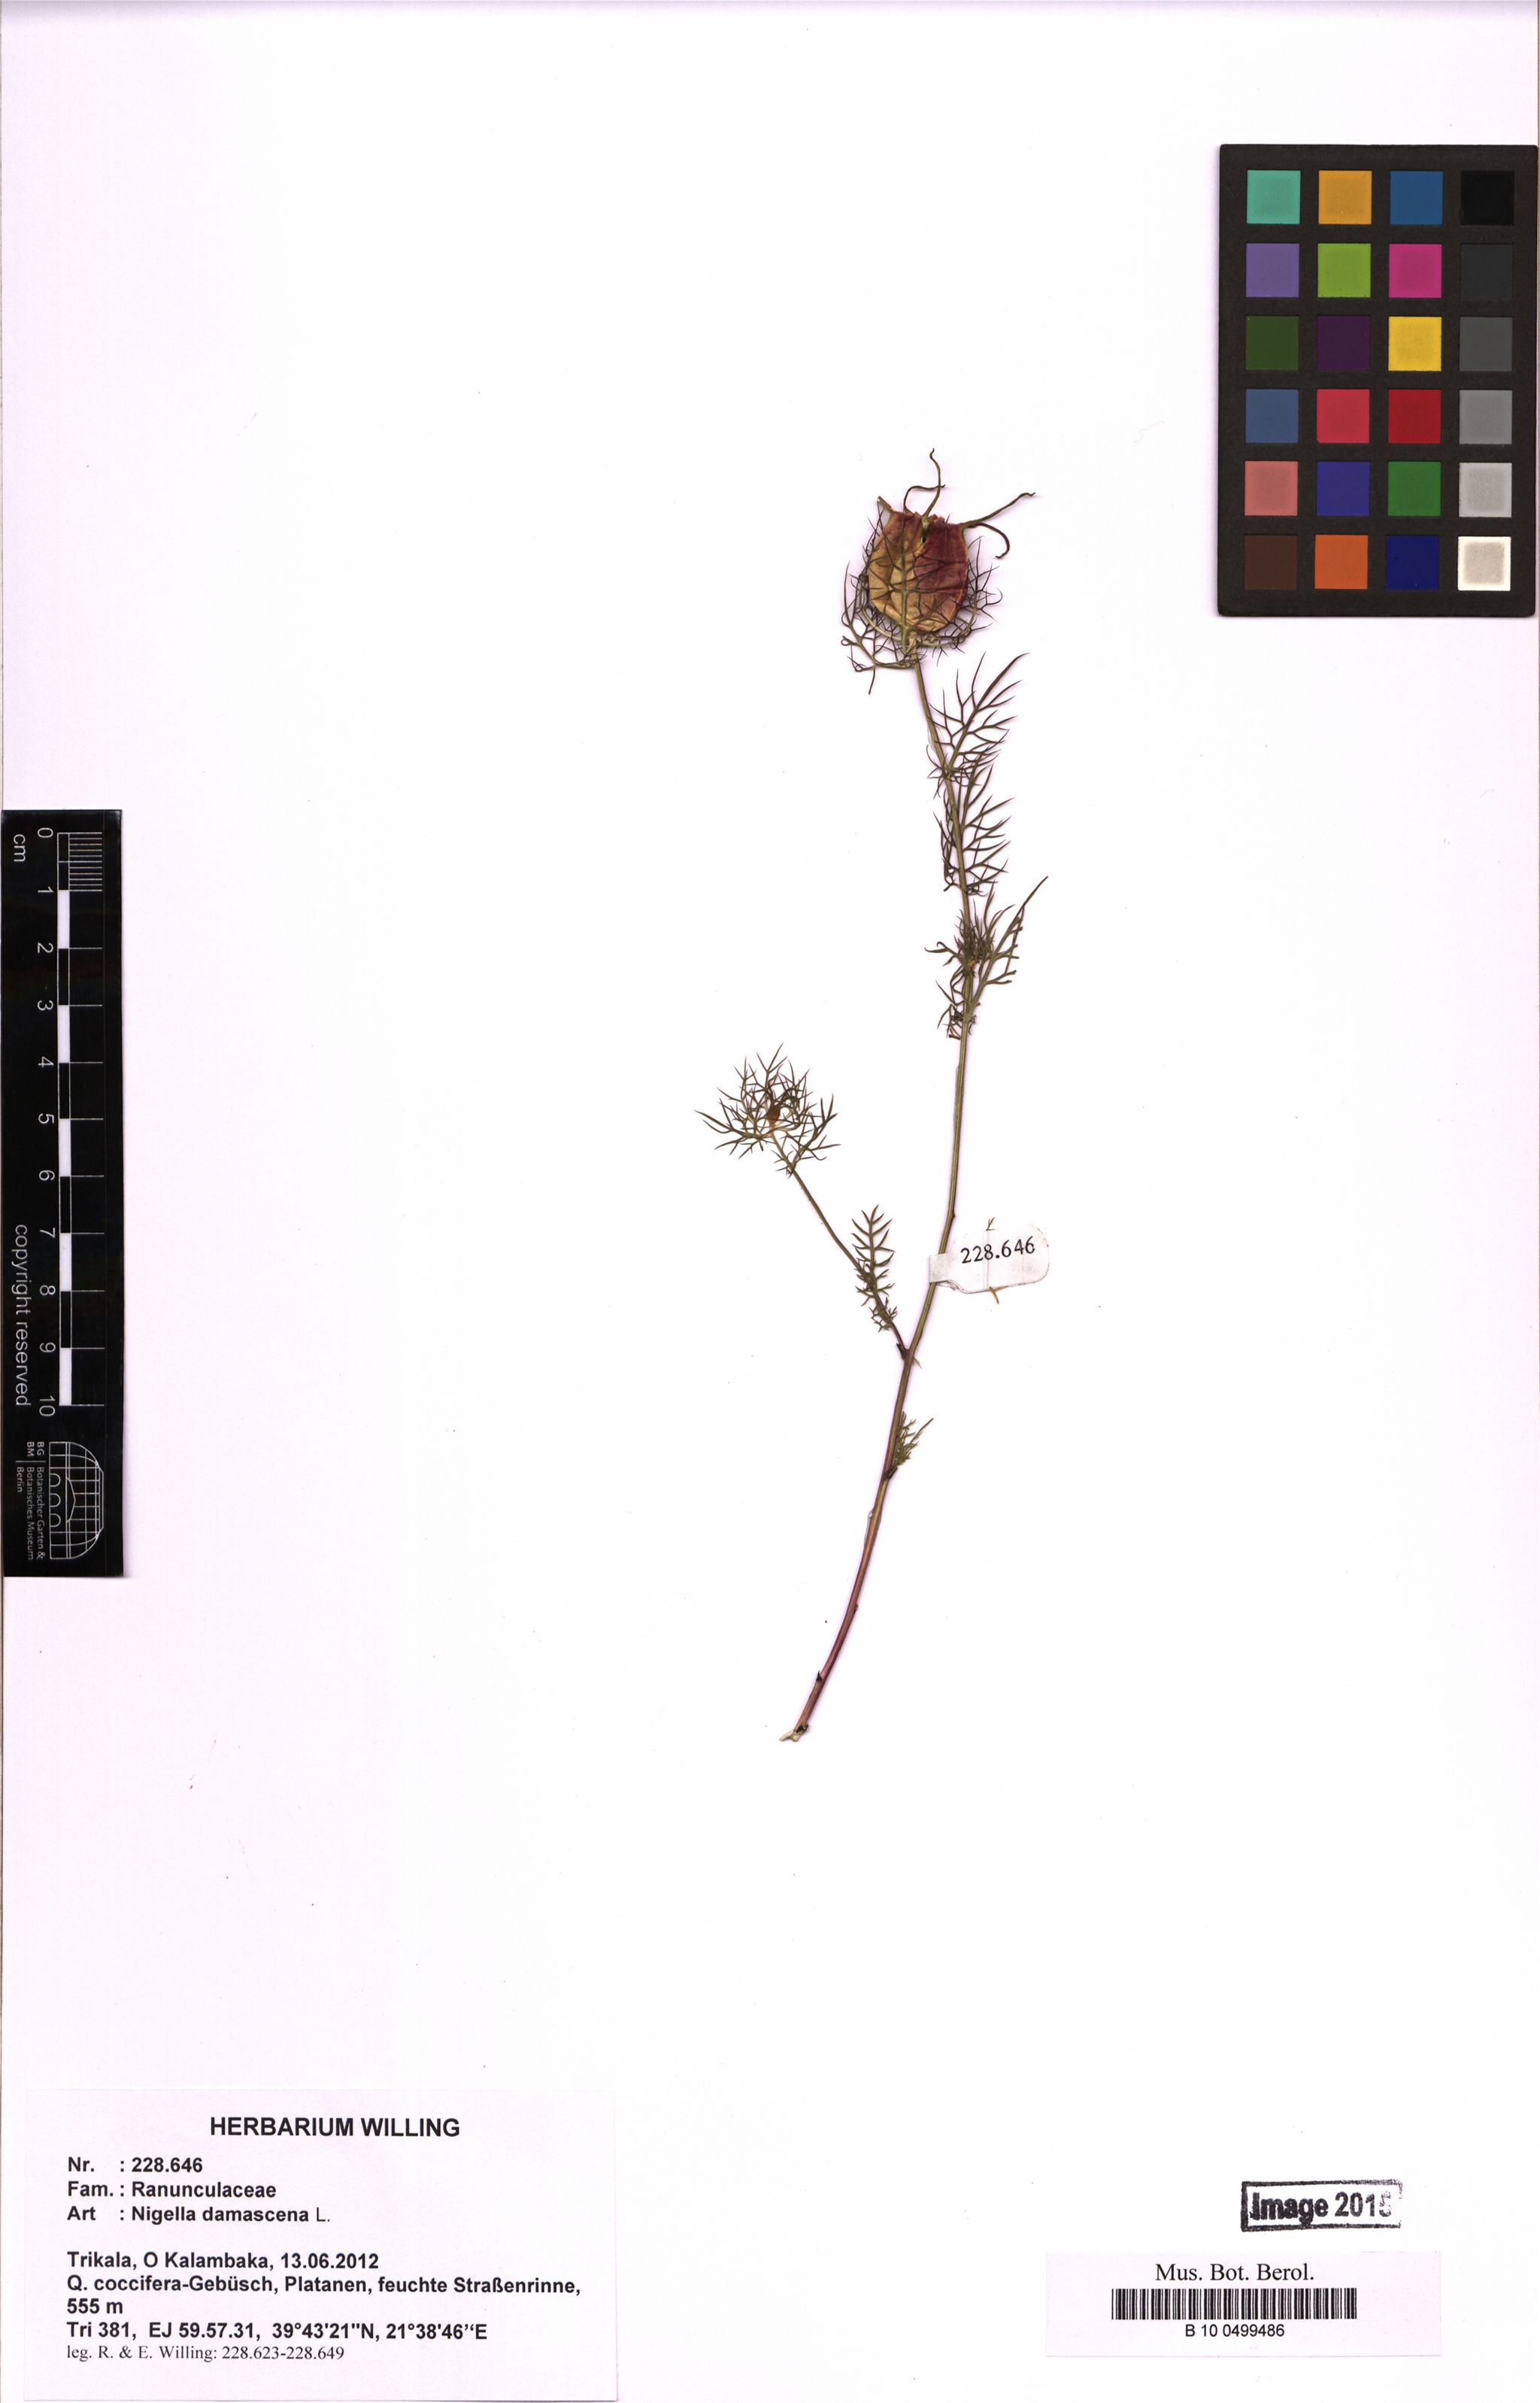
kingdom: Plantae
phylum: Tracheophyta
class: Magnoliopsida
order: Ranunculales
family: Ranunculaceae
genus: Nigella
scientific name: Nigella damascena
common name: Love-in-a-mist
